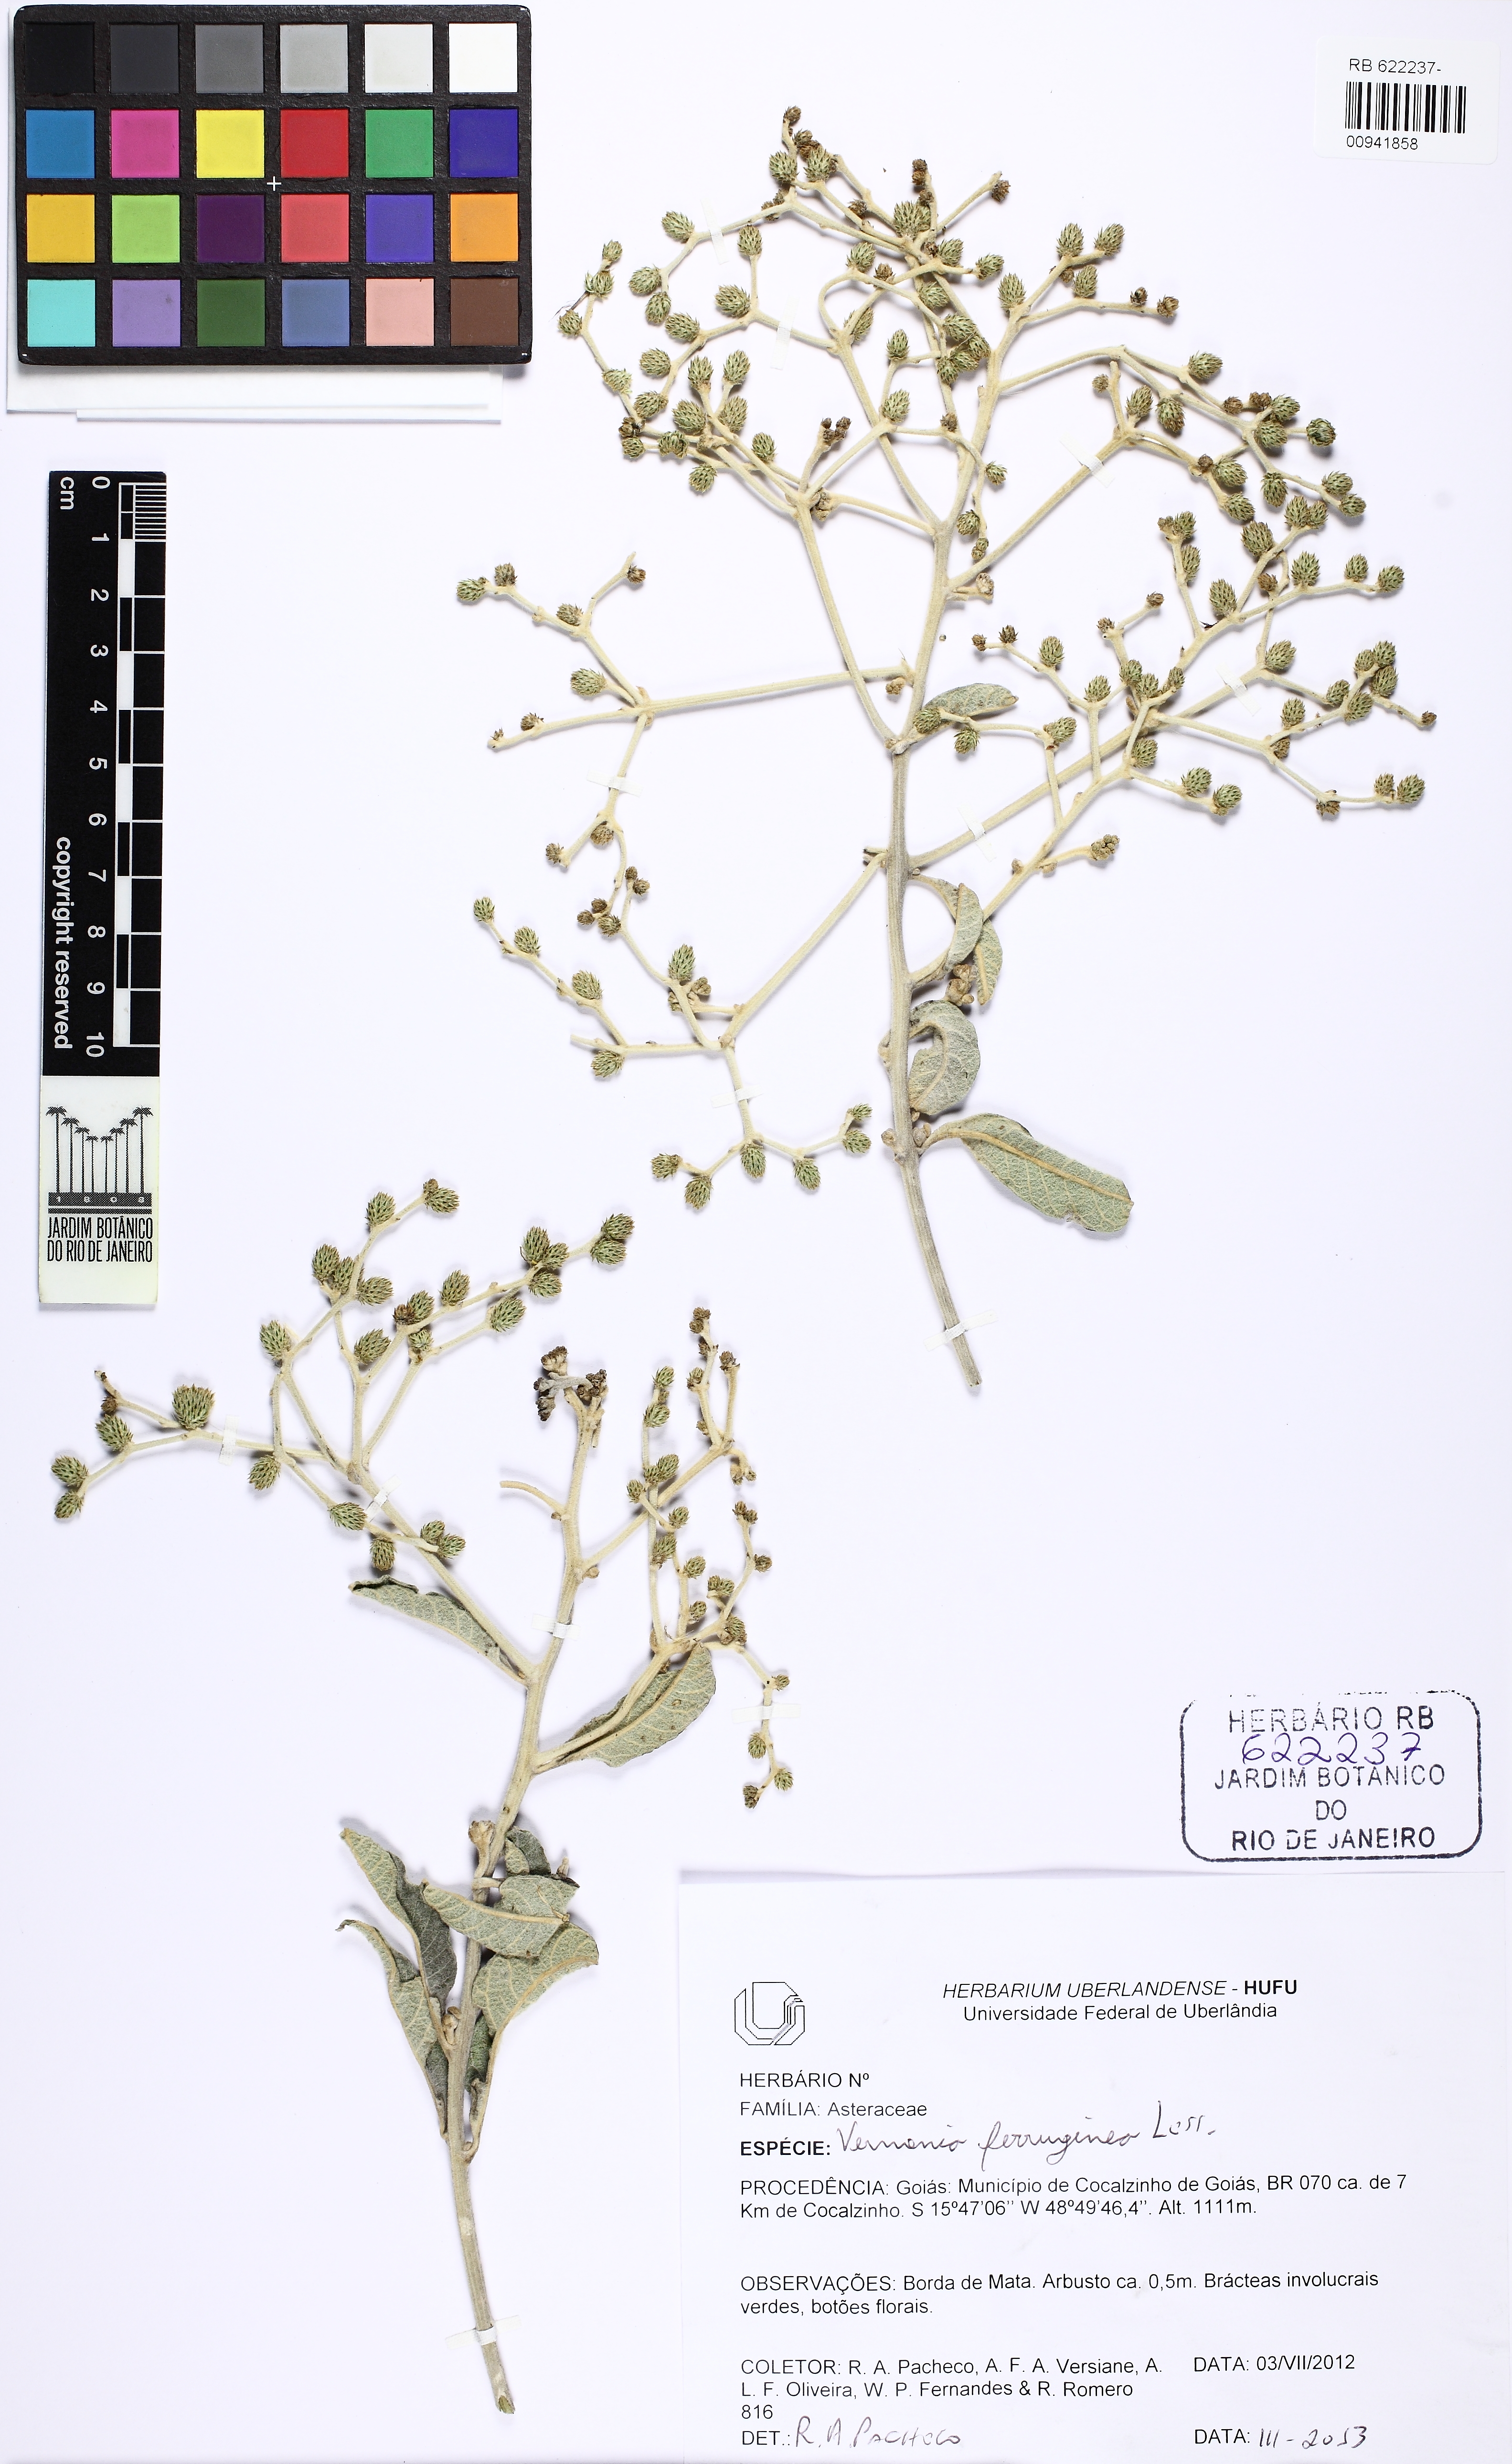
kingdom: Plantae
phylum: Tracheophyta
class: Magnoliopsida
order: Asterales
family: Asteraceae
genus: Vernonanthura
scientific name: Vernonanthura ferruginea
